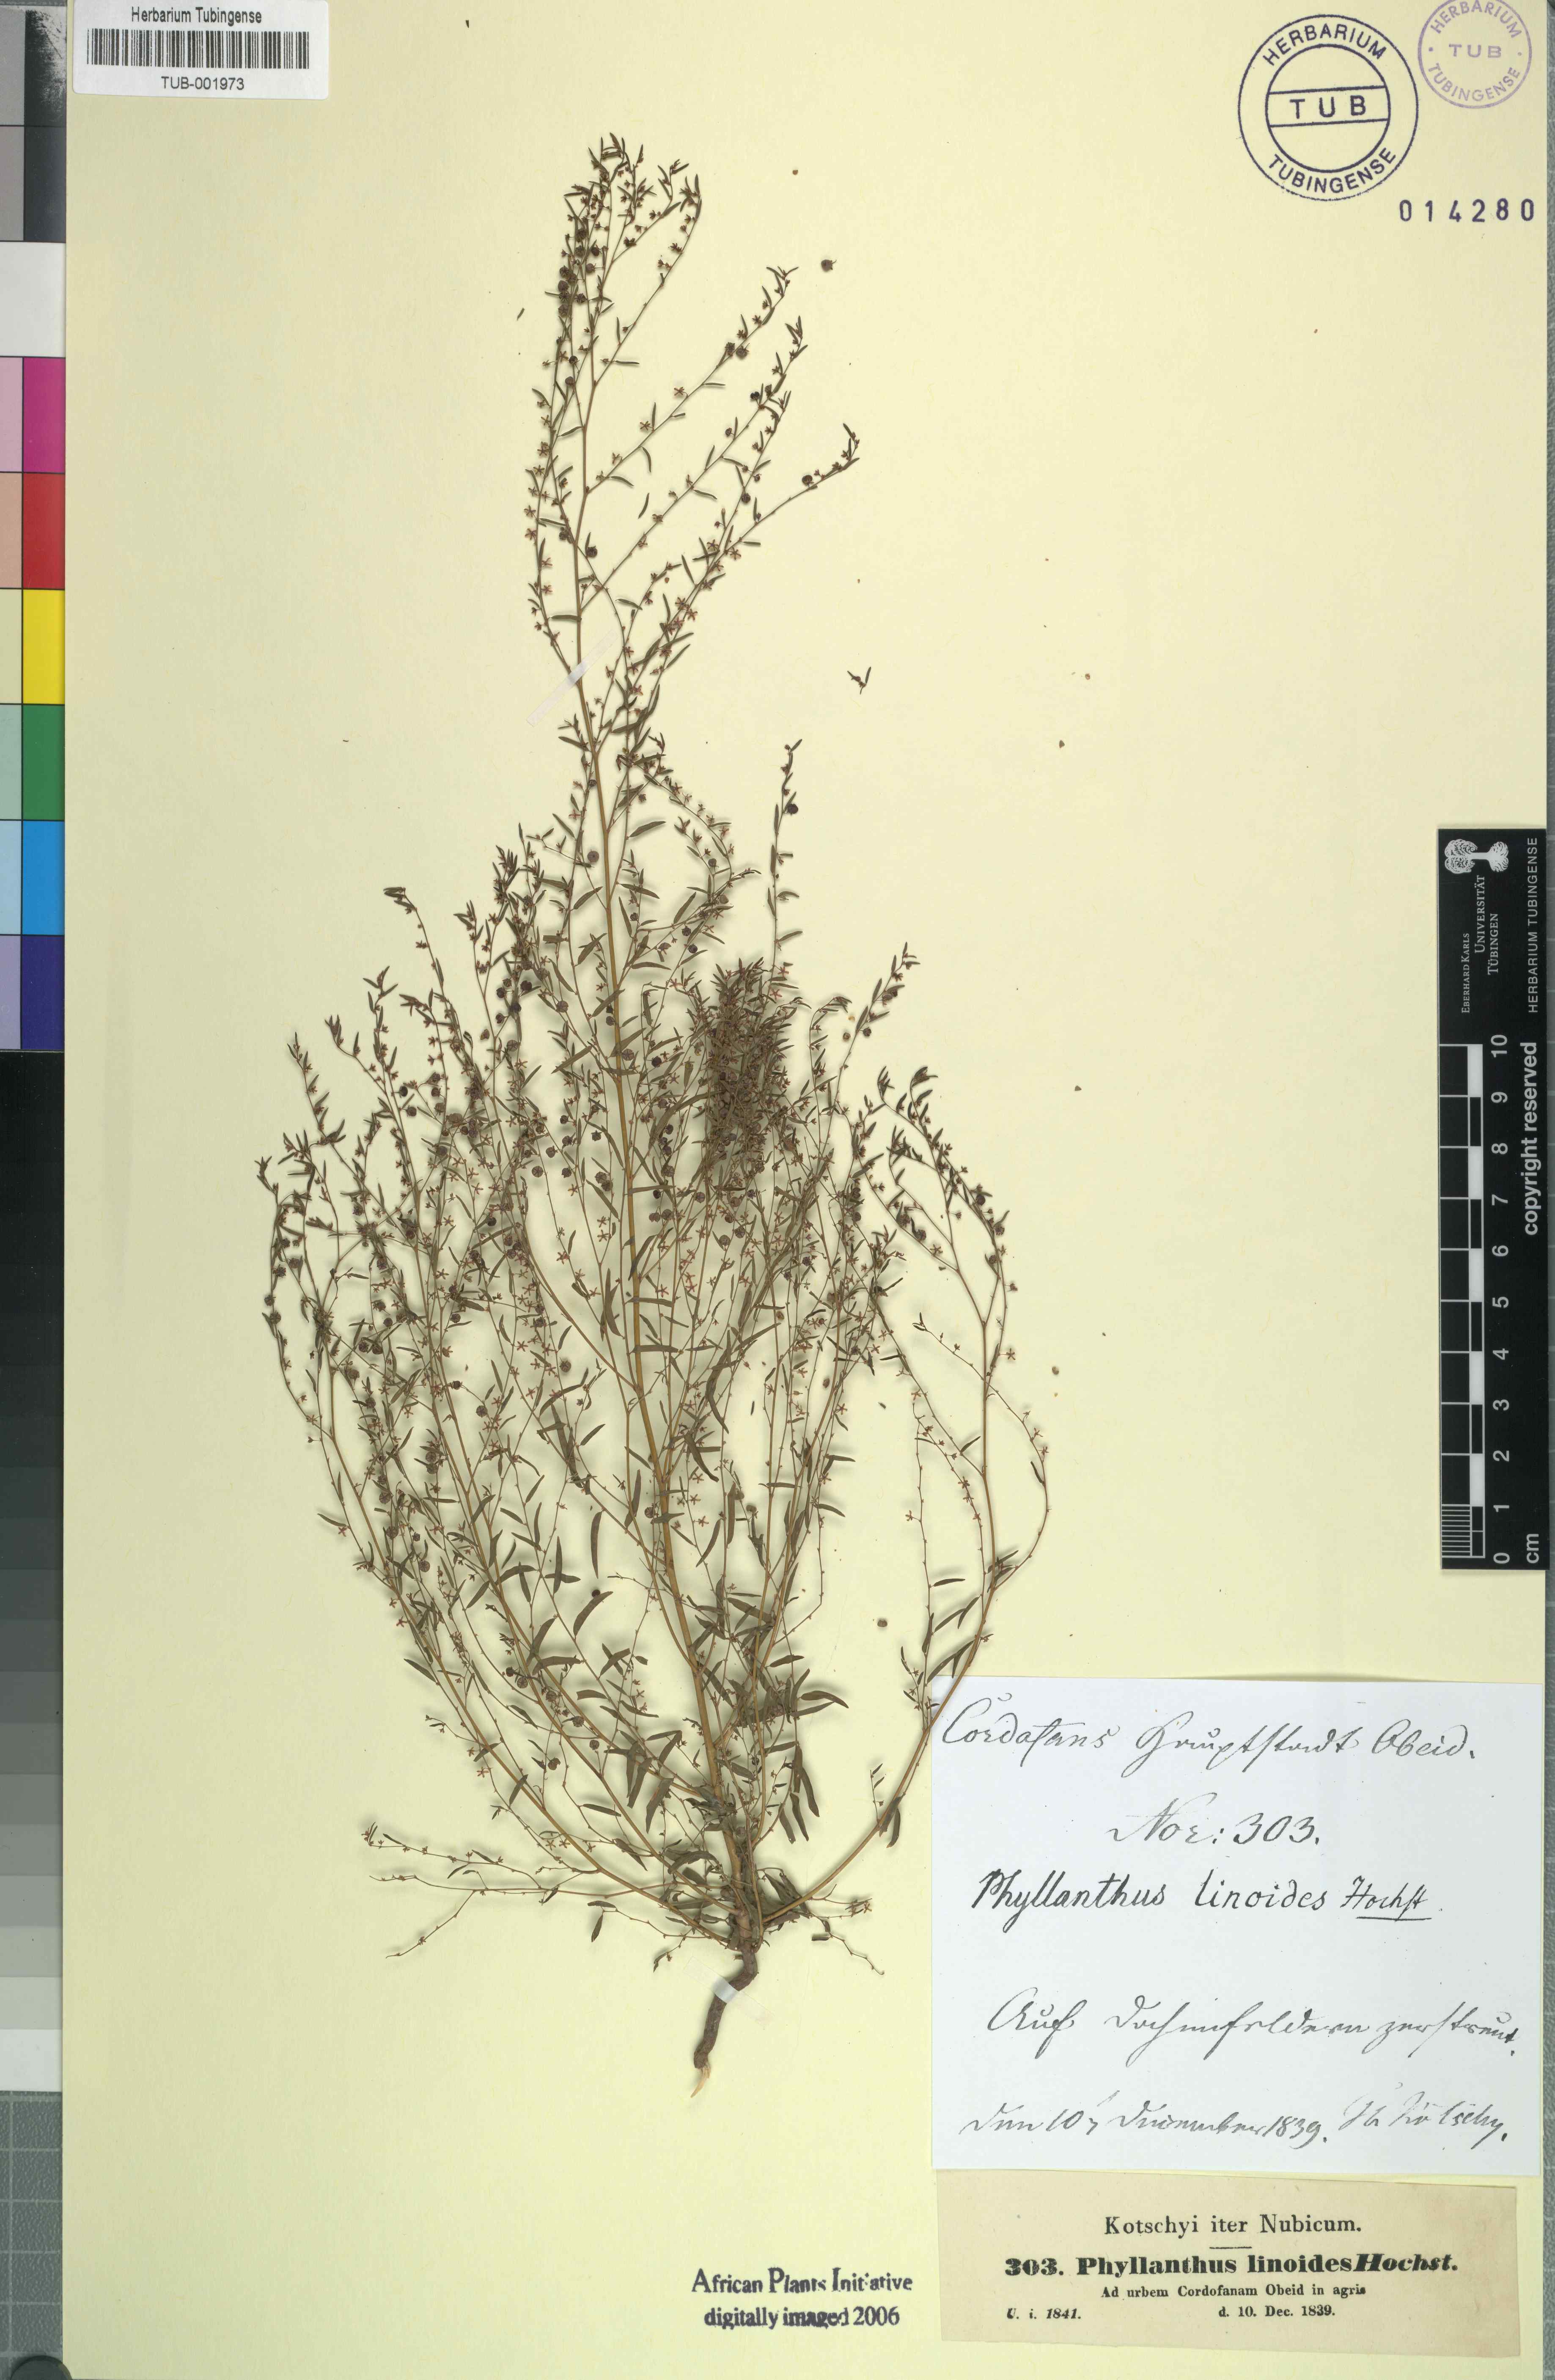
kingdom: Plantae
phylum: Tracheophyta
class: Magnoliopsida
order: Malpighiales
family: Phyllanthaceae
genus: Phyllanthus
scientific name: Phyllanthus pentandrus
